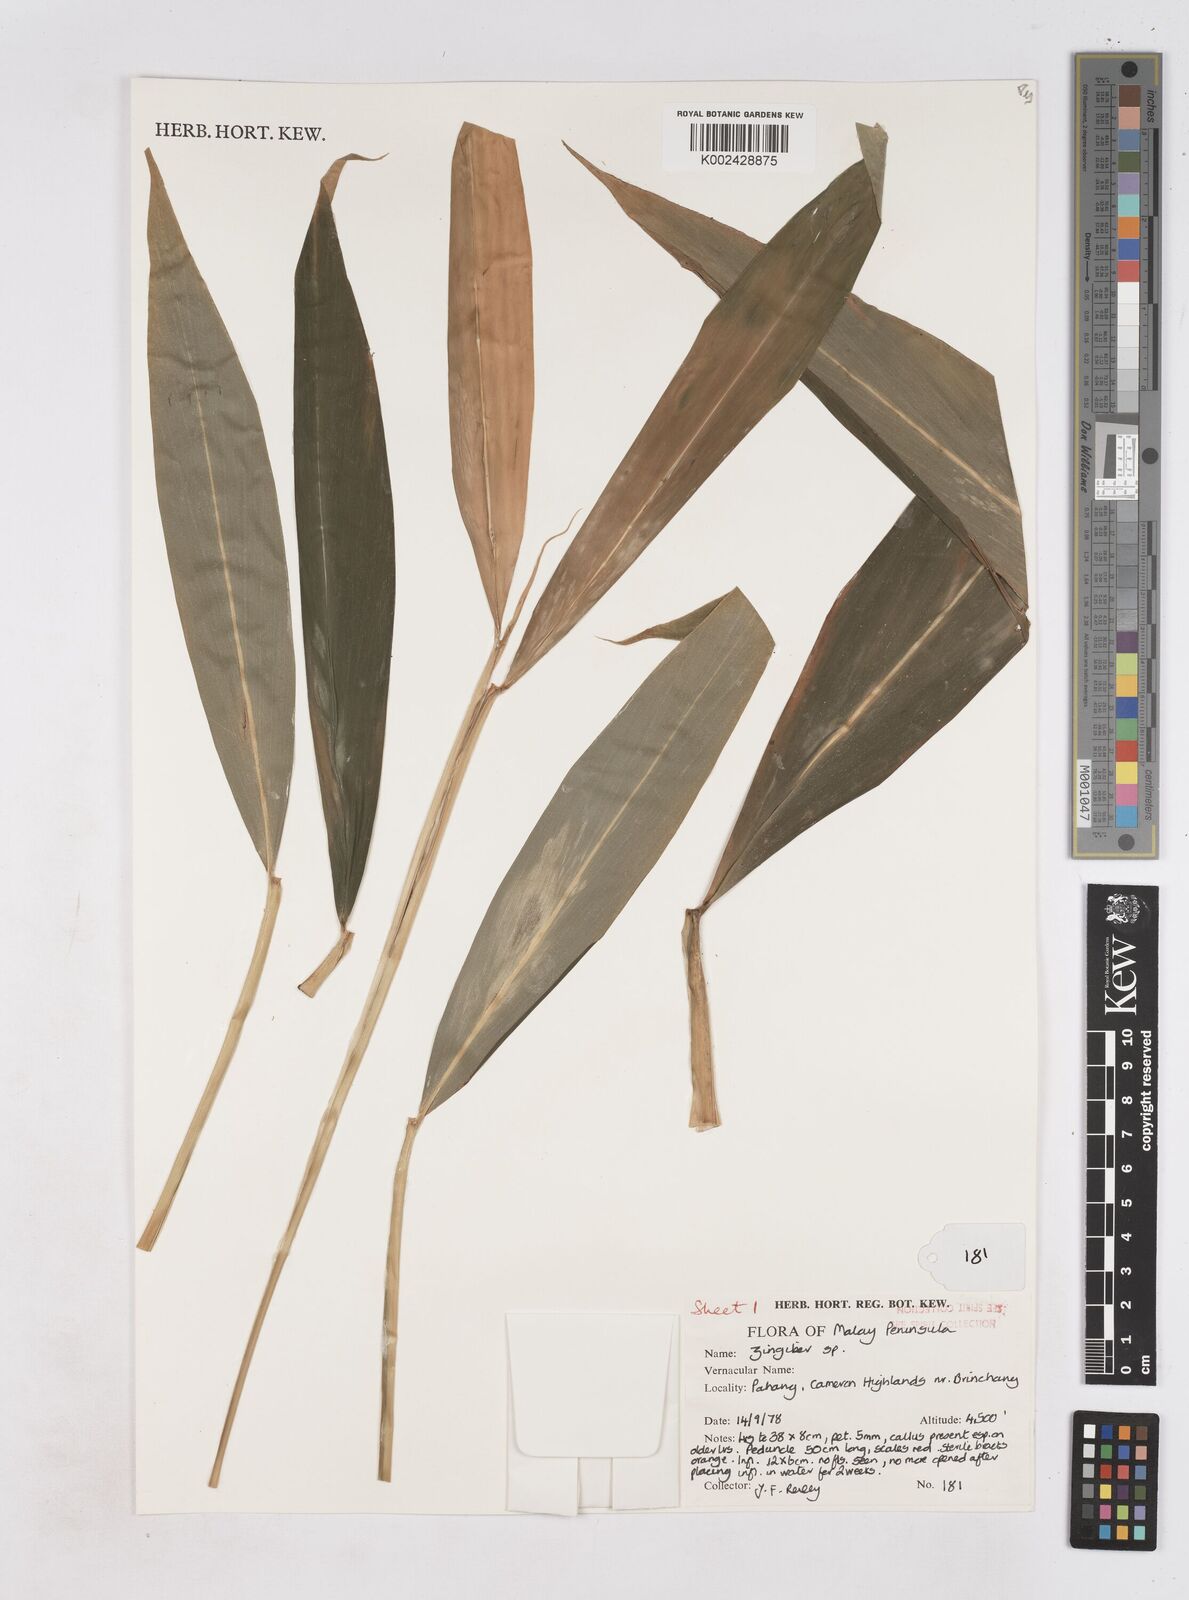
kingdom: Plantae
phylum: Tracheophyta
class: Liliopsida
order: Zingiberales
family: Zingiberaceae
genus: Zingiber
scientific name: Zingiber
